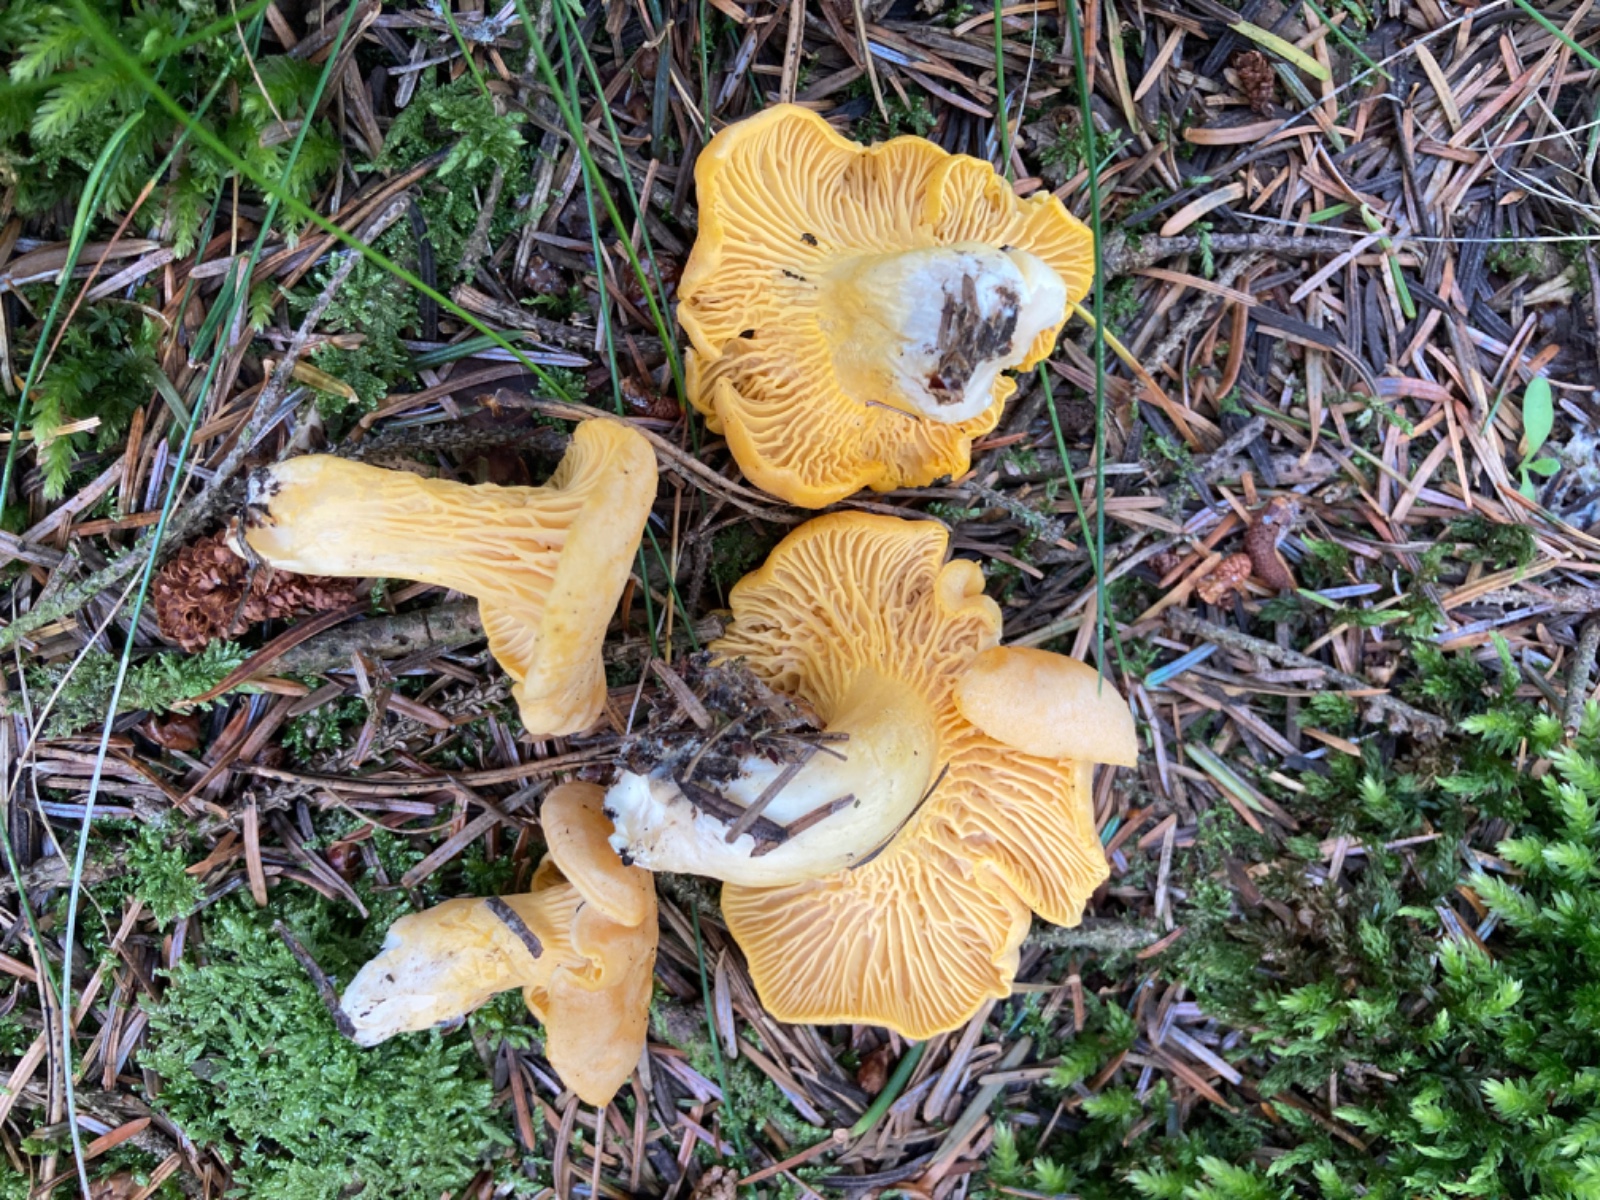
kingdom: Fungi
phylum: Basidiomycota
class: Agaricomycetes
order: Cantharellales
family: Hydnaceae
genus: Cantharellus
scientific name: Cantharellus cibarius
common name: almindelig kantarel
